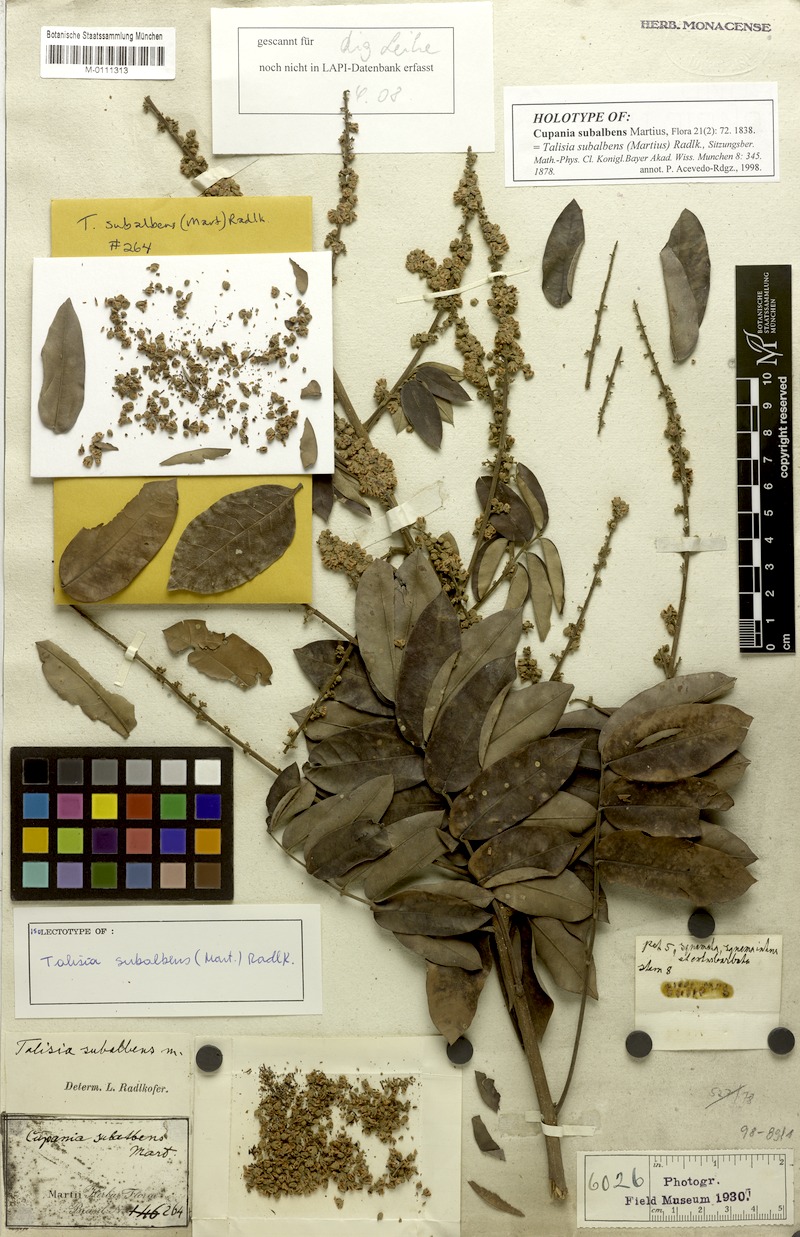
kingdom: Plantae
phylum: Tracheophyta
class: Magnoliopsida
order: Sapindales
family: Sapindaceae
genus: Talisia
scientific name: Talisia subalbens
